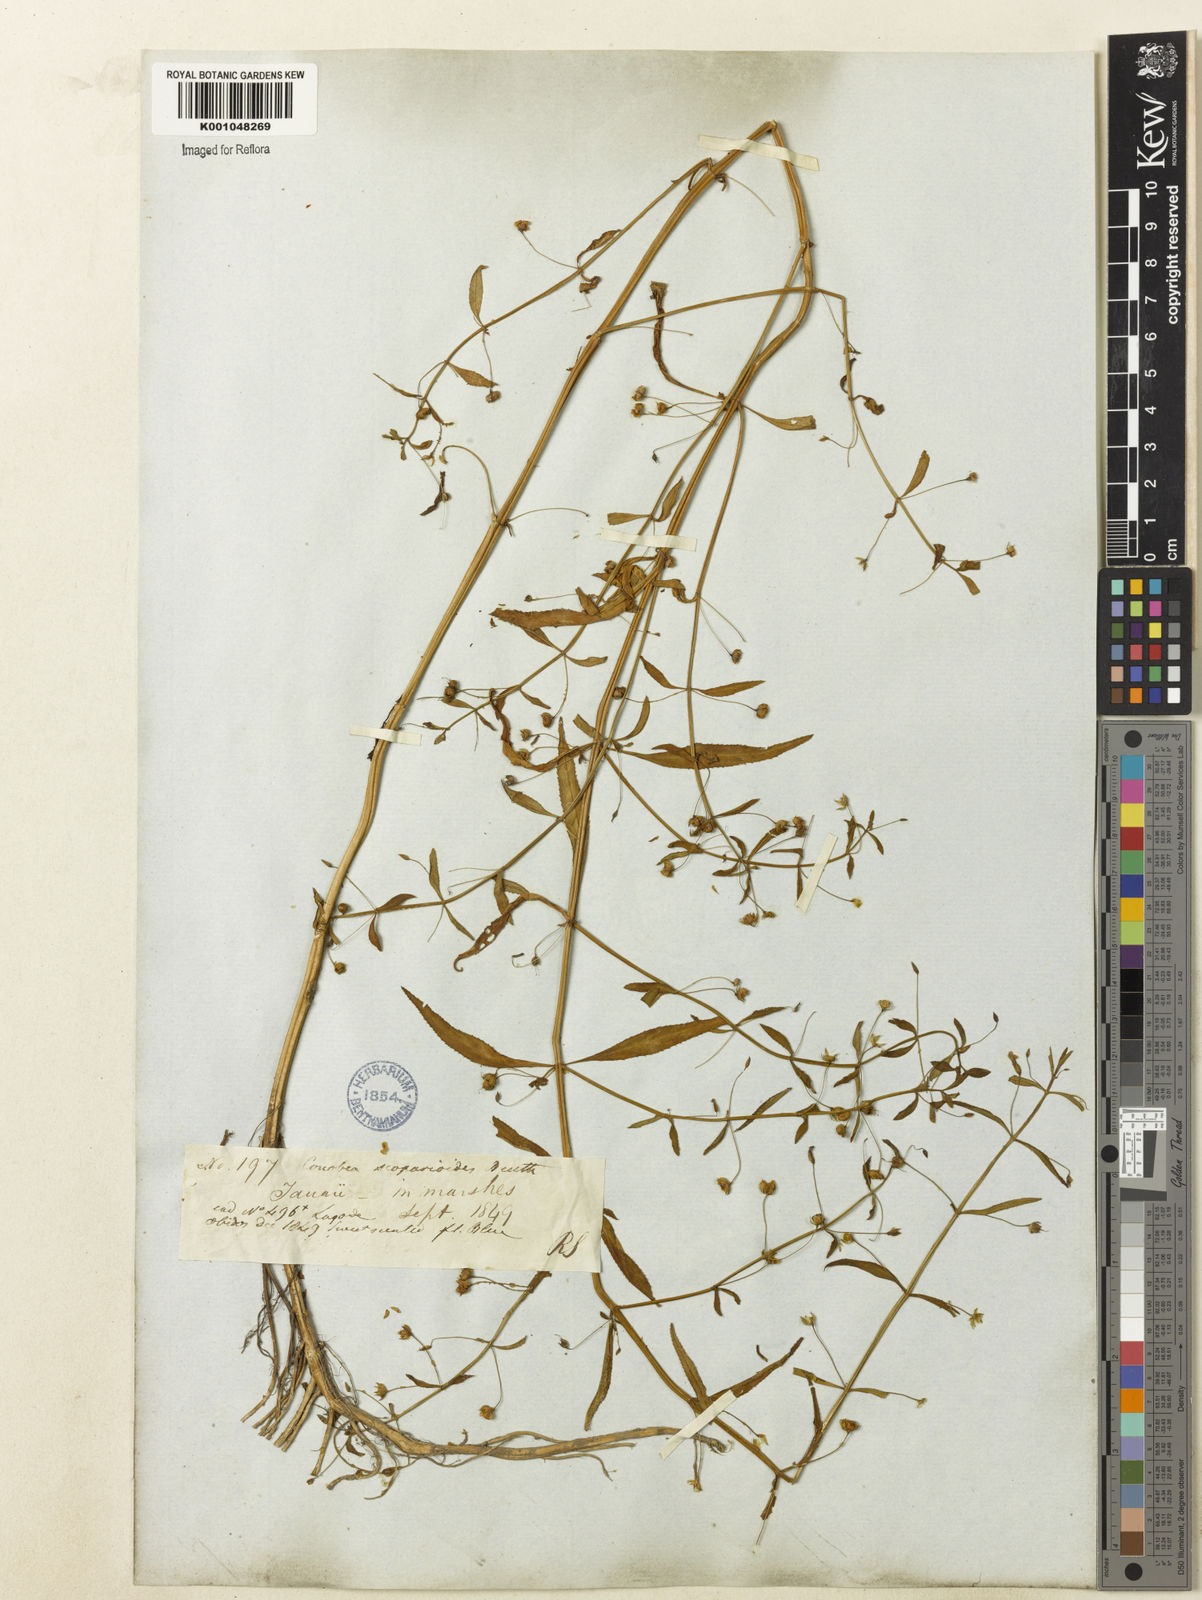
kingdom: Plantae
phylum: Tracheophyta
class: Magnoliopsida
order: Lamiales
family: Plantaginaceae
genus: Conobea
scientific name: Conobea scoparioides
